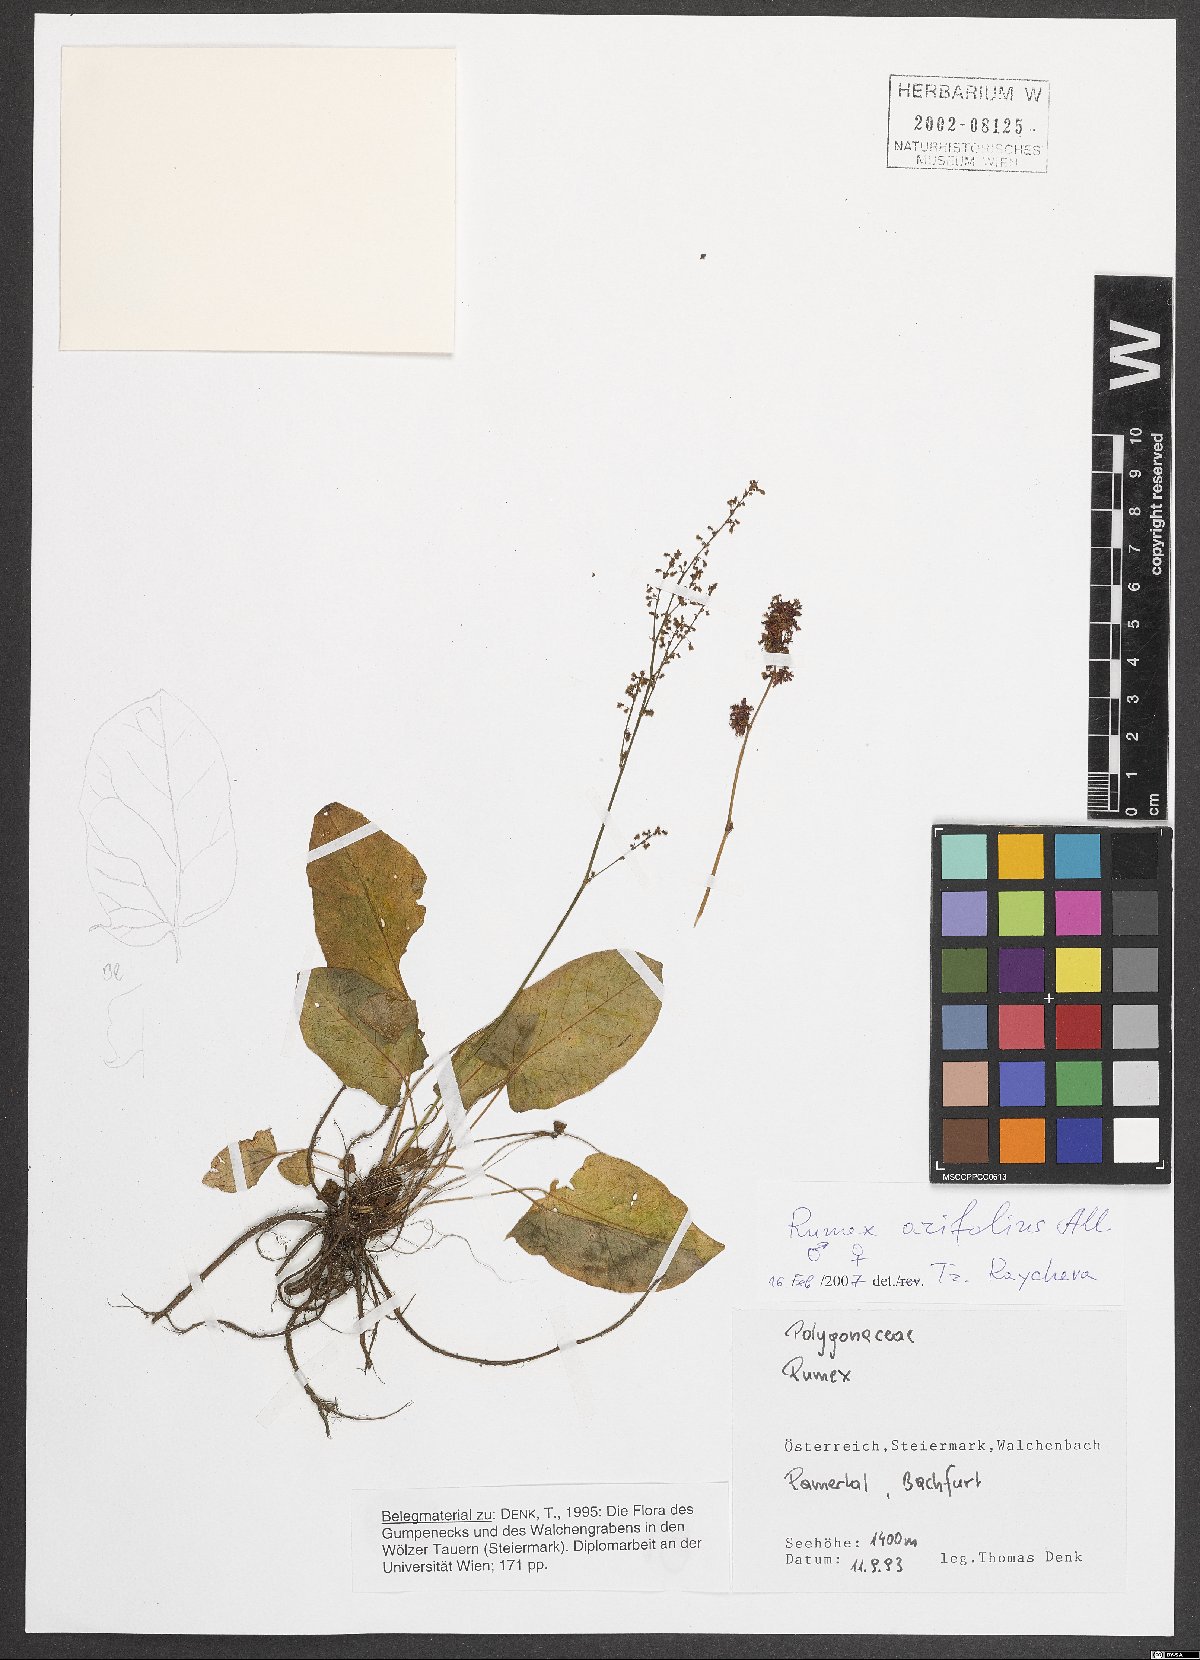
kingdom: Plantae
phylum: Tracheophyta
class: Magnoliopsida
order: Caryophyllales
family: Polygonaceae
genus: Rumex
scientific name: Rumex arifolius
